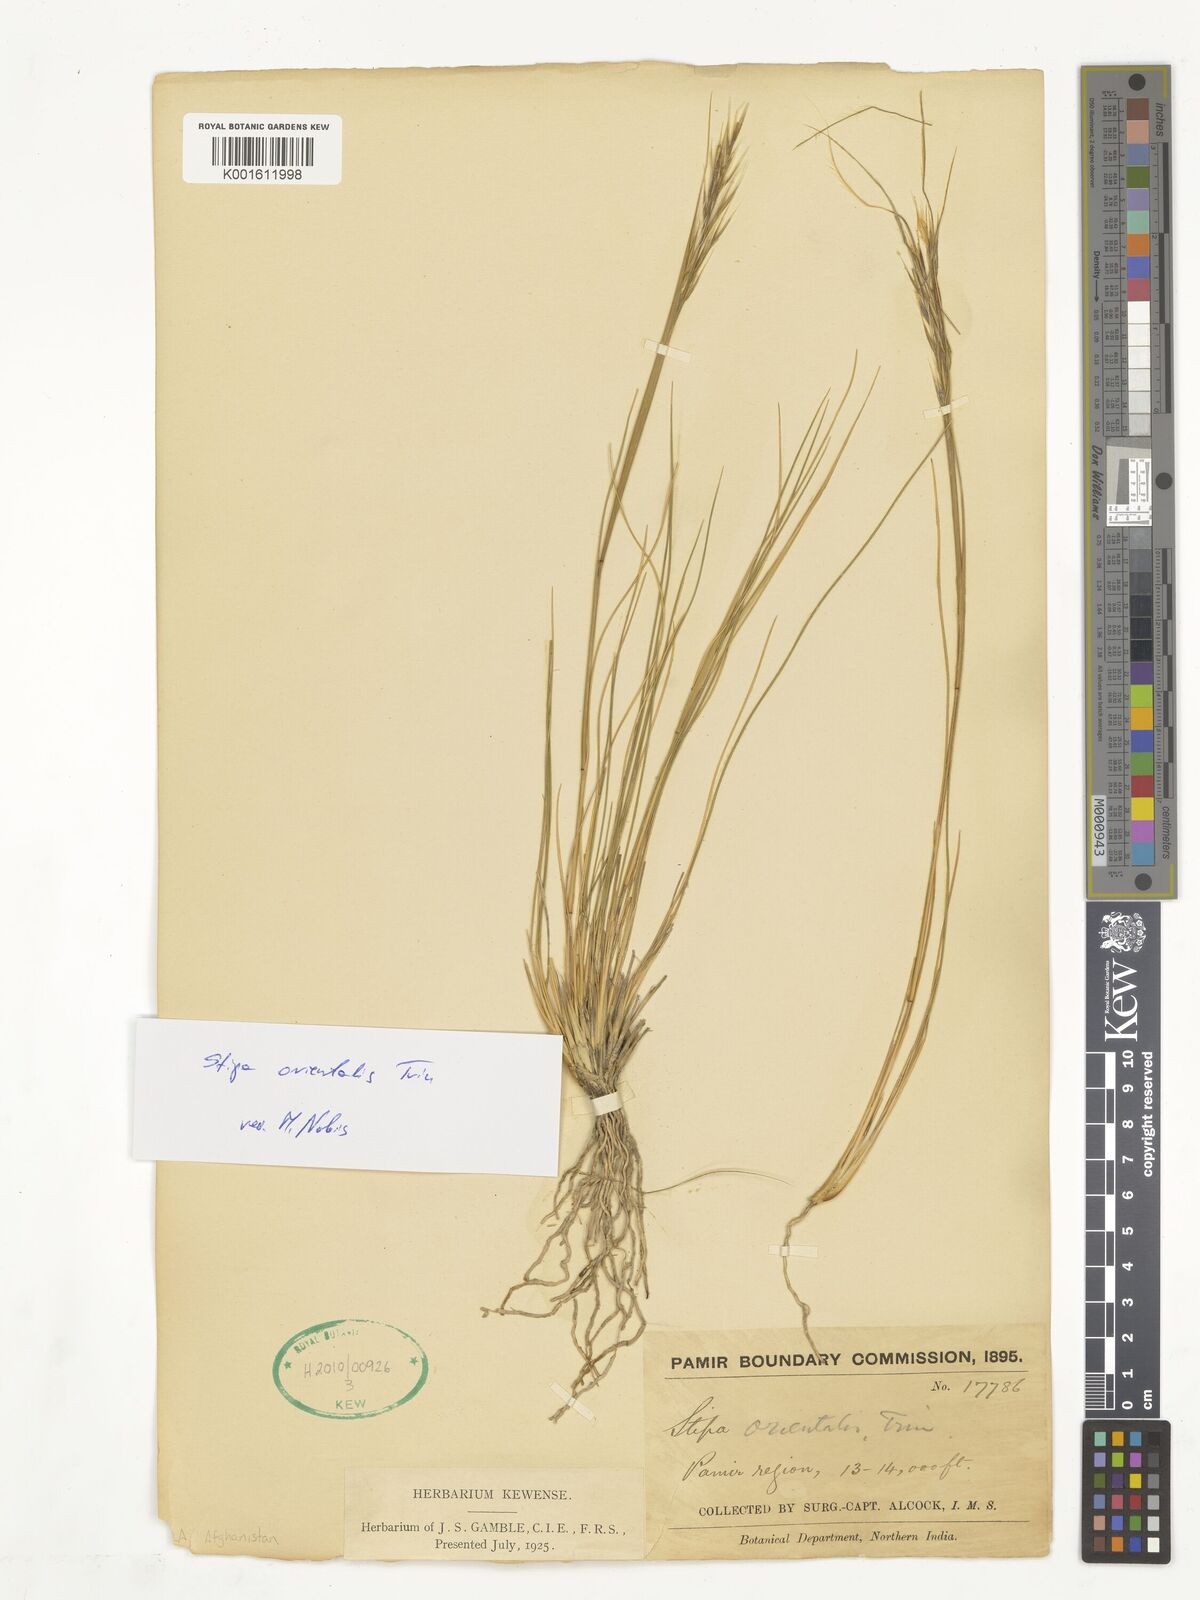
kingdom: Plantae
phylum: Tracheophyta
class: Liliopsida
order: Poales
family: Poaceae
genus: Stipa
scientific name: Stipa orientalis
